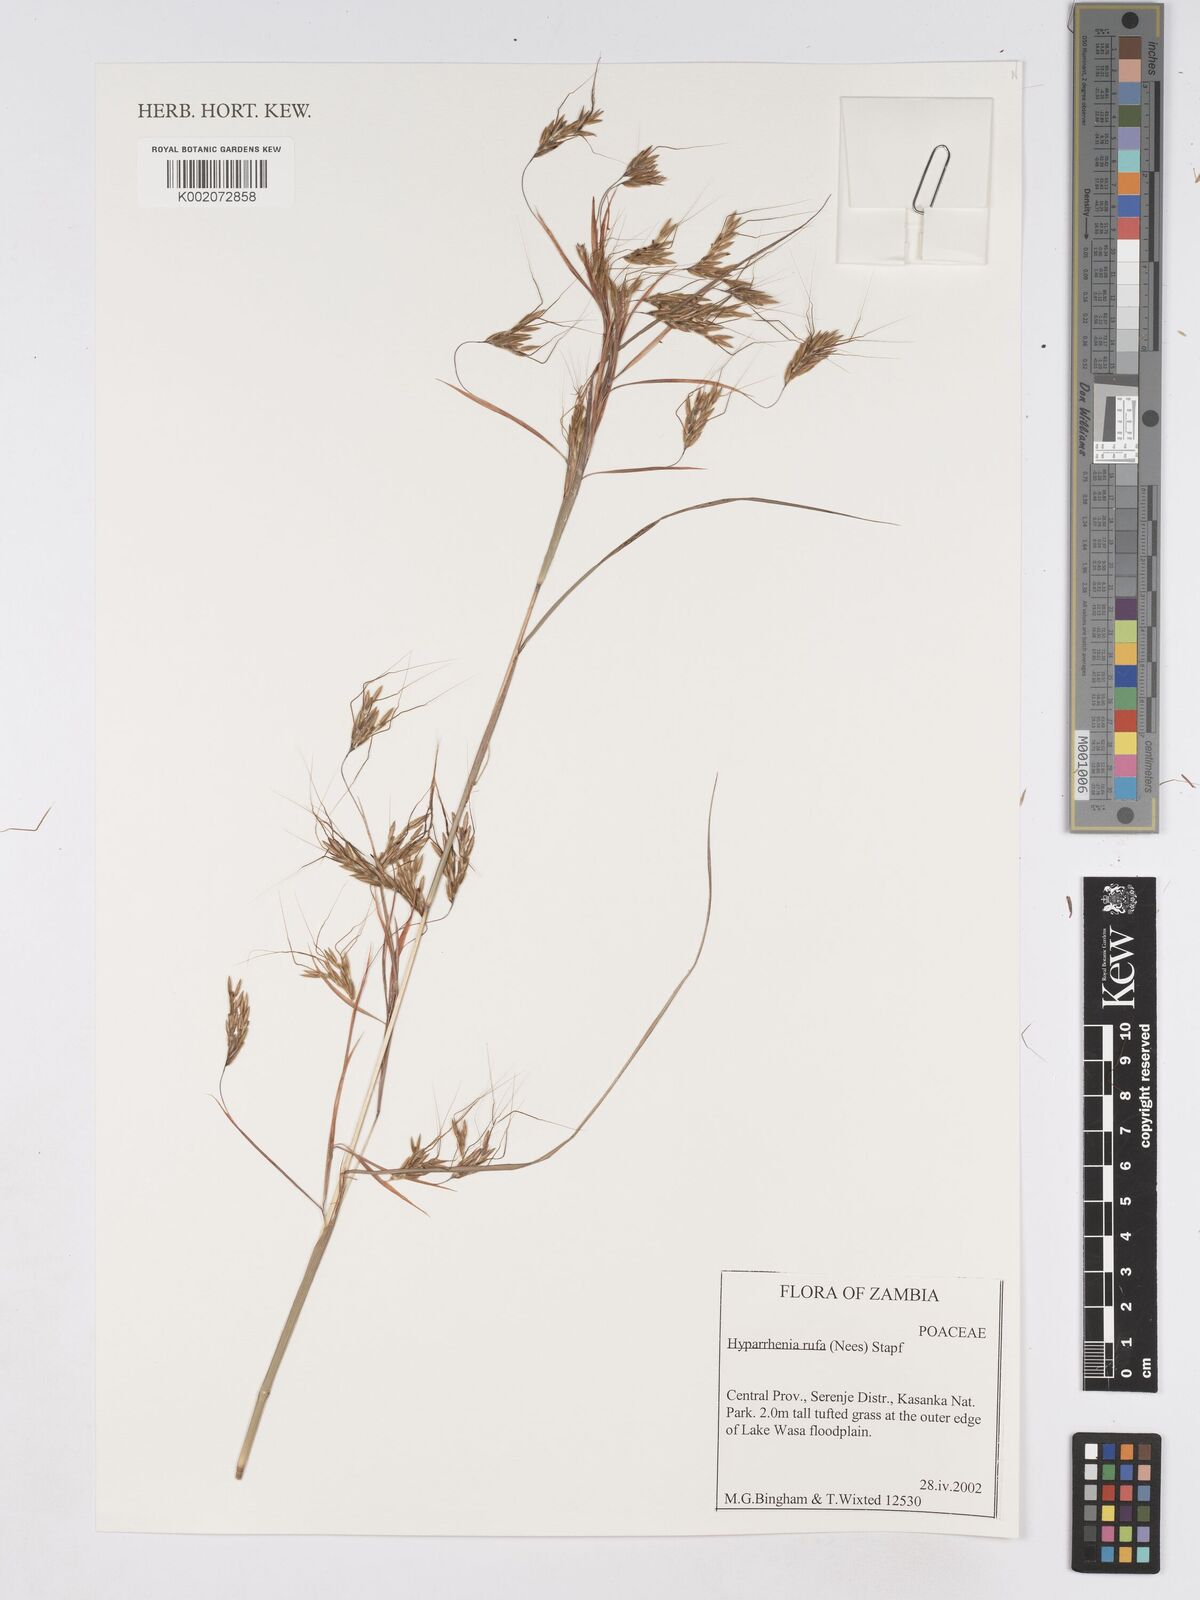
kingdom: Plantae
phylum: Tracheophyta
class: Liliopsida
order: Poales
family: Poaceae
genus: Hyparrhenia
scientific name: Hyparrhenia rufa
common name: Jaraguagrass
